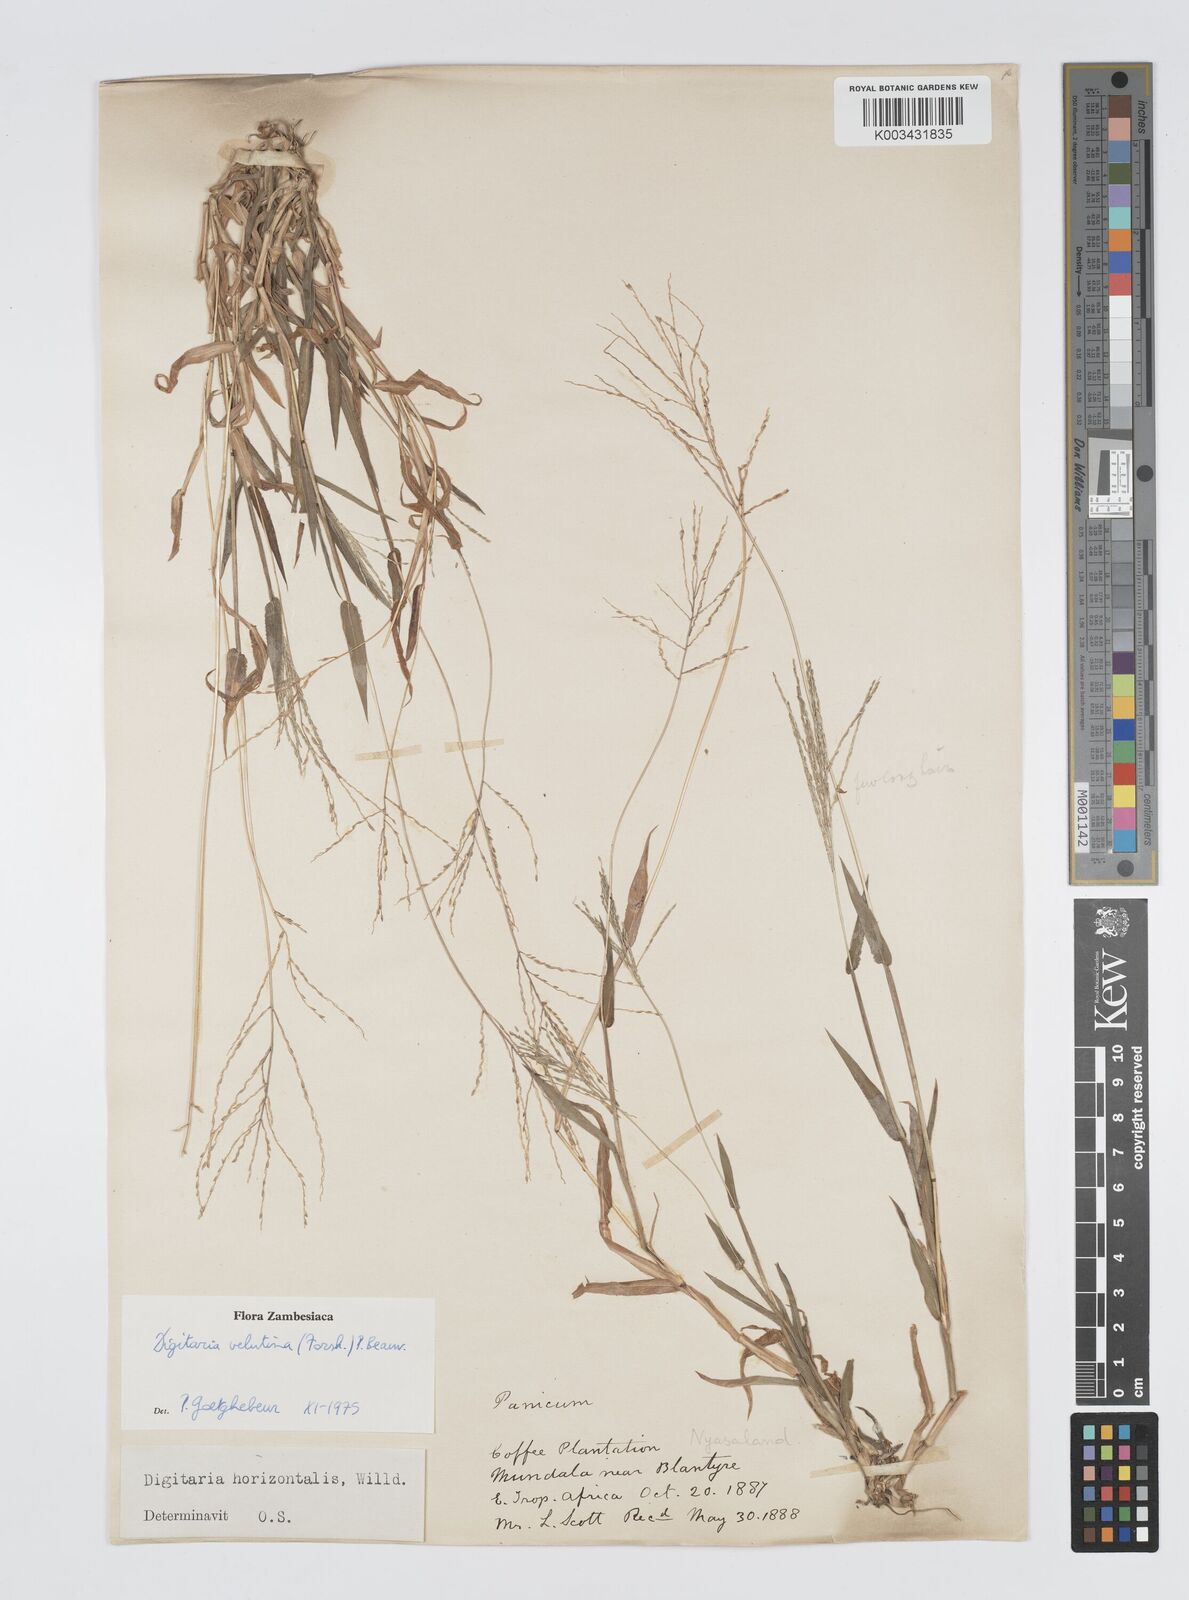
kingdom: Plantae
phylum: Tracheophyta
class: Liliopsida
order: Poales
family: Poaceae
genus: Digitaria
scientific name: Digitaria velutina
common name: Long-plume finger grass
